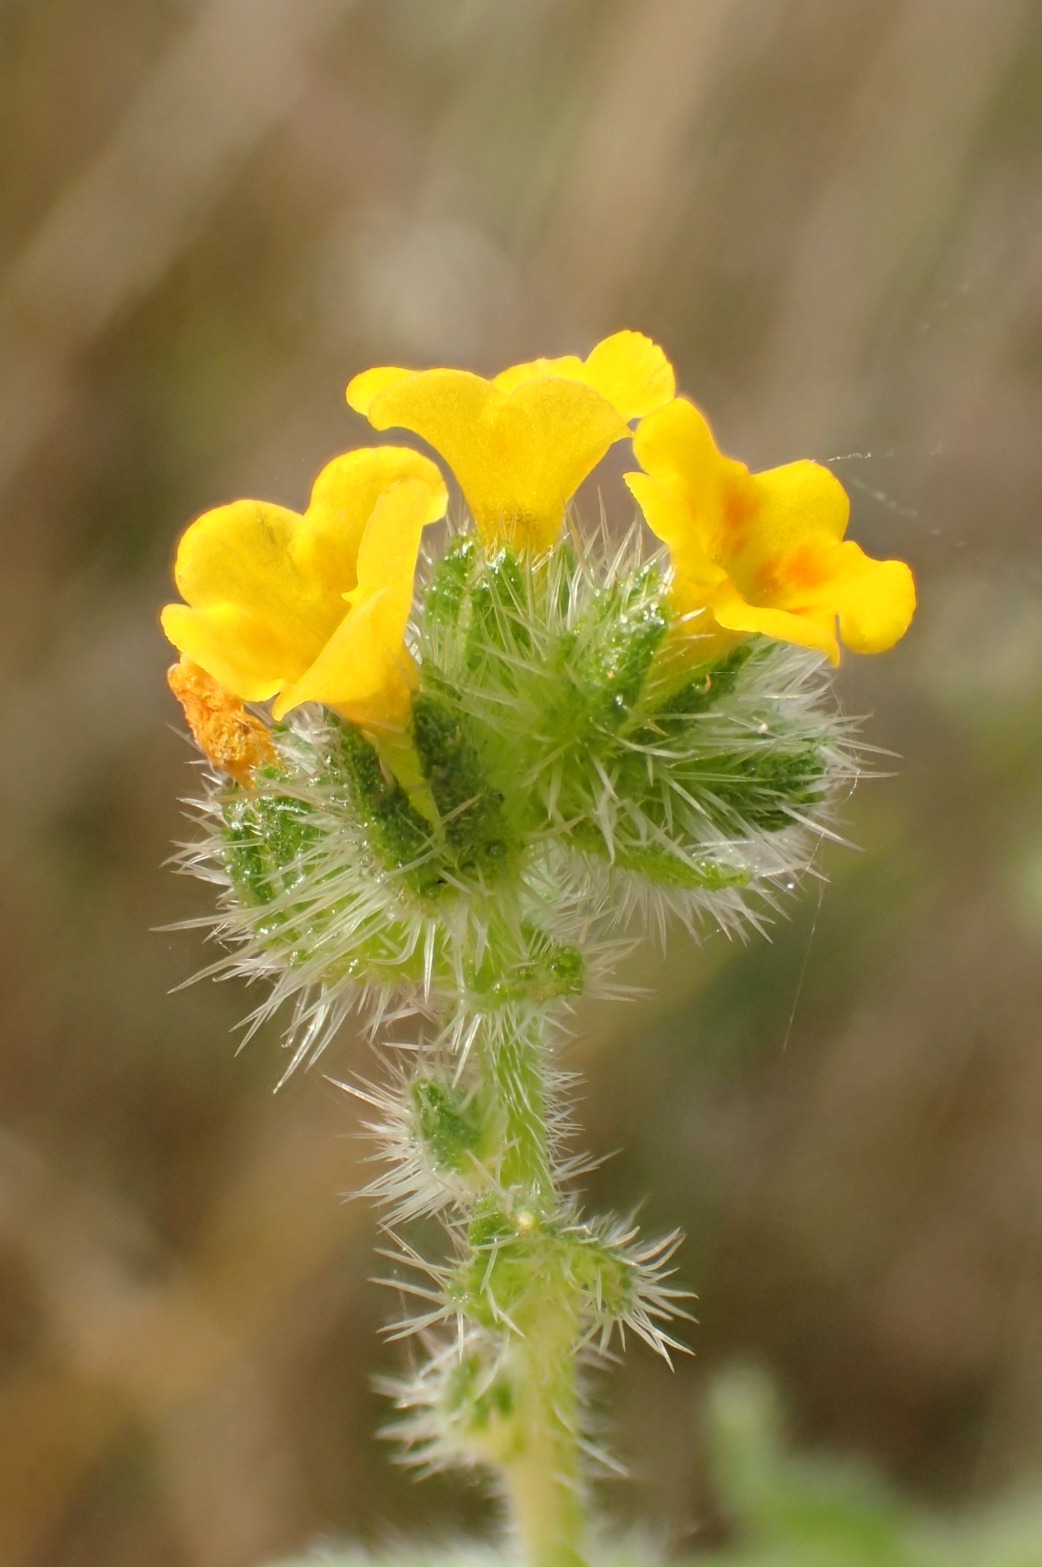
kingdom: Plantae
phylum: Tracheophyta
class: Magnoliopsida
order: Boraginales
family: Boraginaceae
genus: Amsinckia
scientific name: Amsinckia menziesii
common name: Småblomstret gulurt
